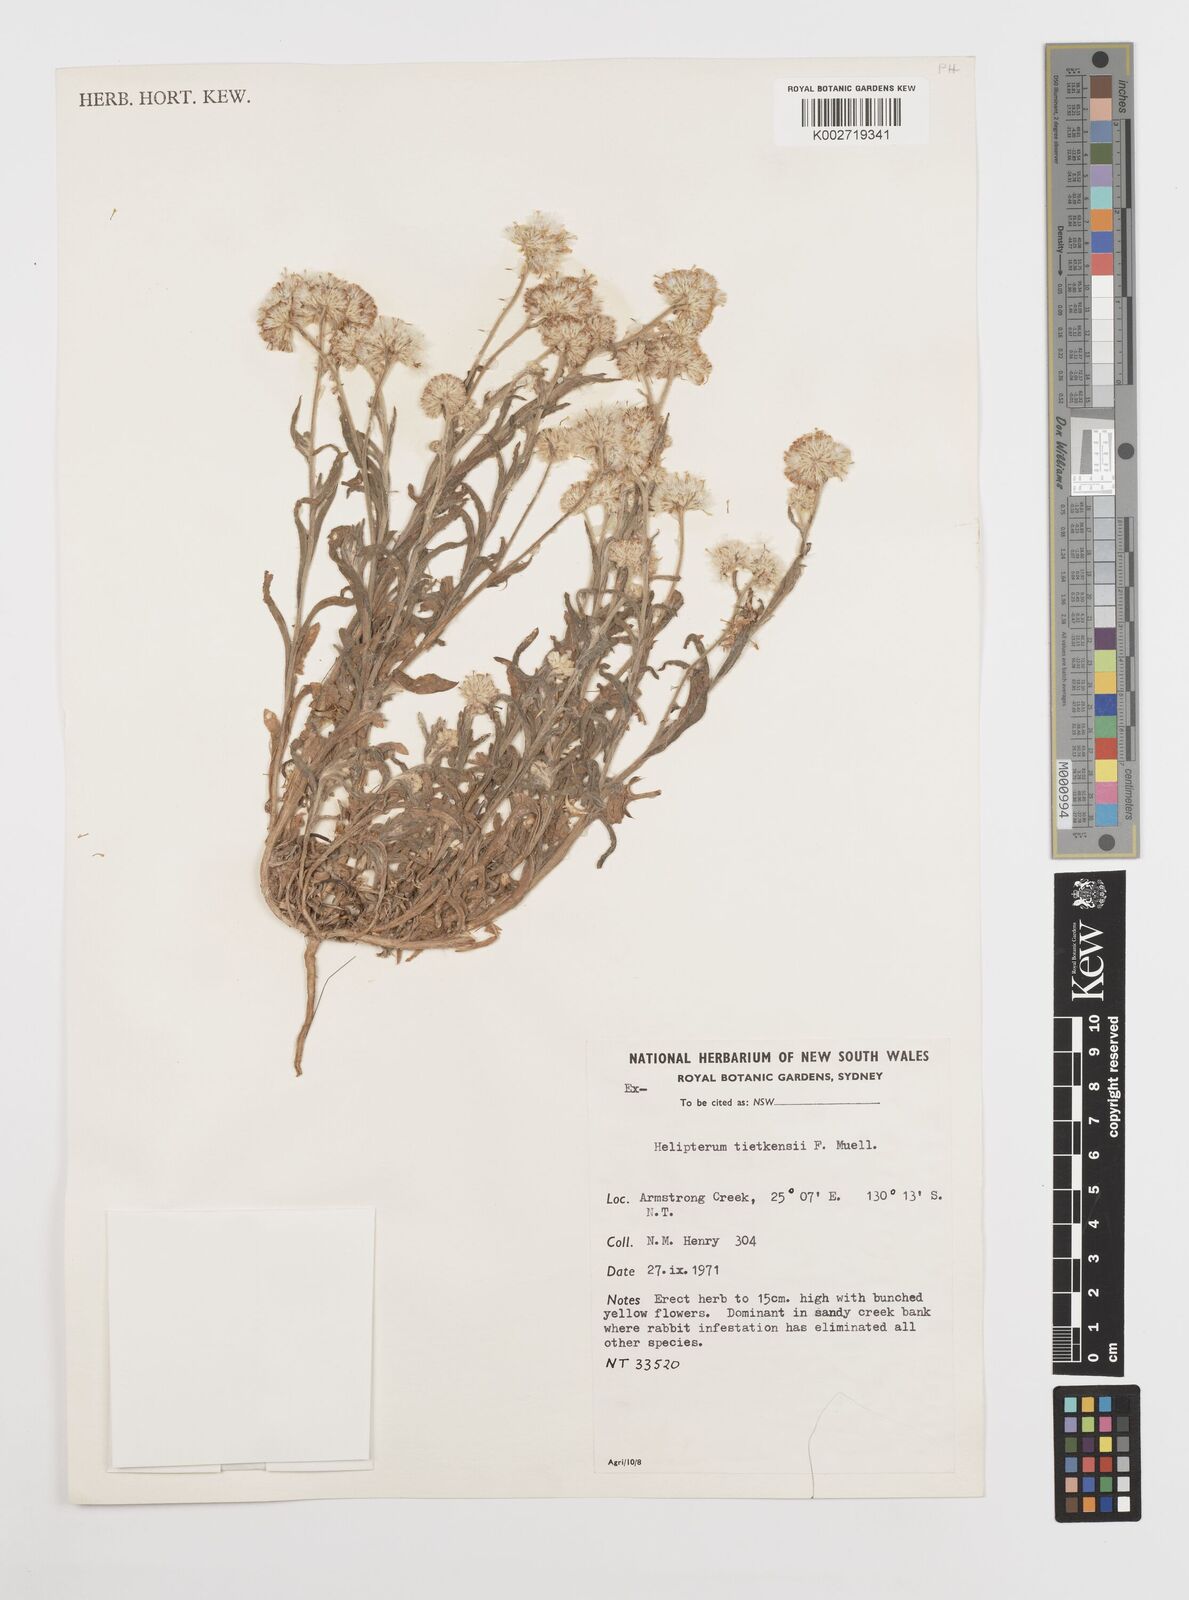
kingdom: Plantae
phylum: Tracheophyta
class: Magnoliopsida
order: Asterales
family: Asteraceae
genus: Rhodanthe
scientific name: Rhodanthe tietkensii
